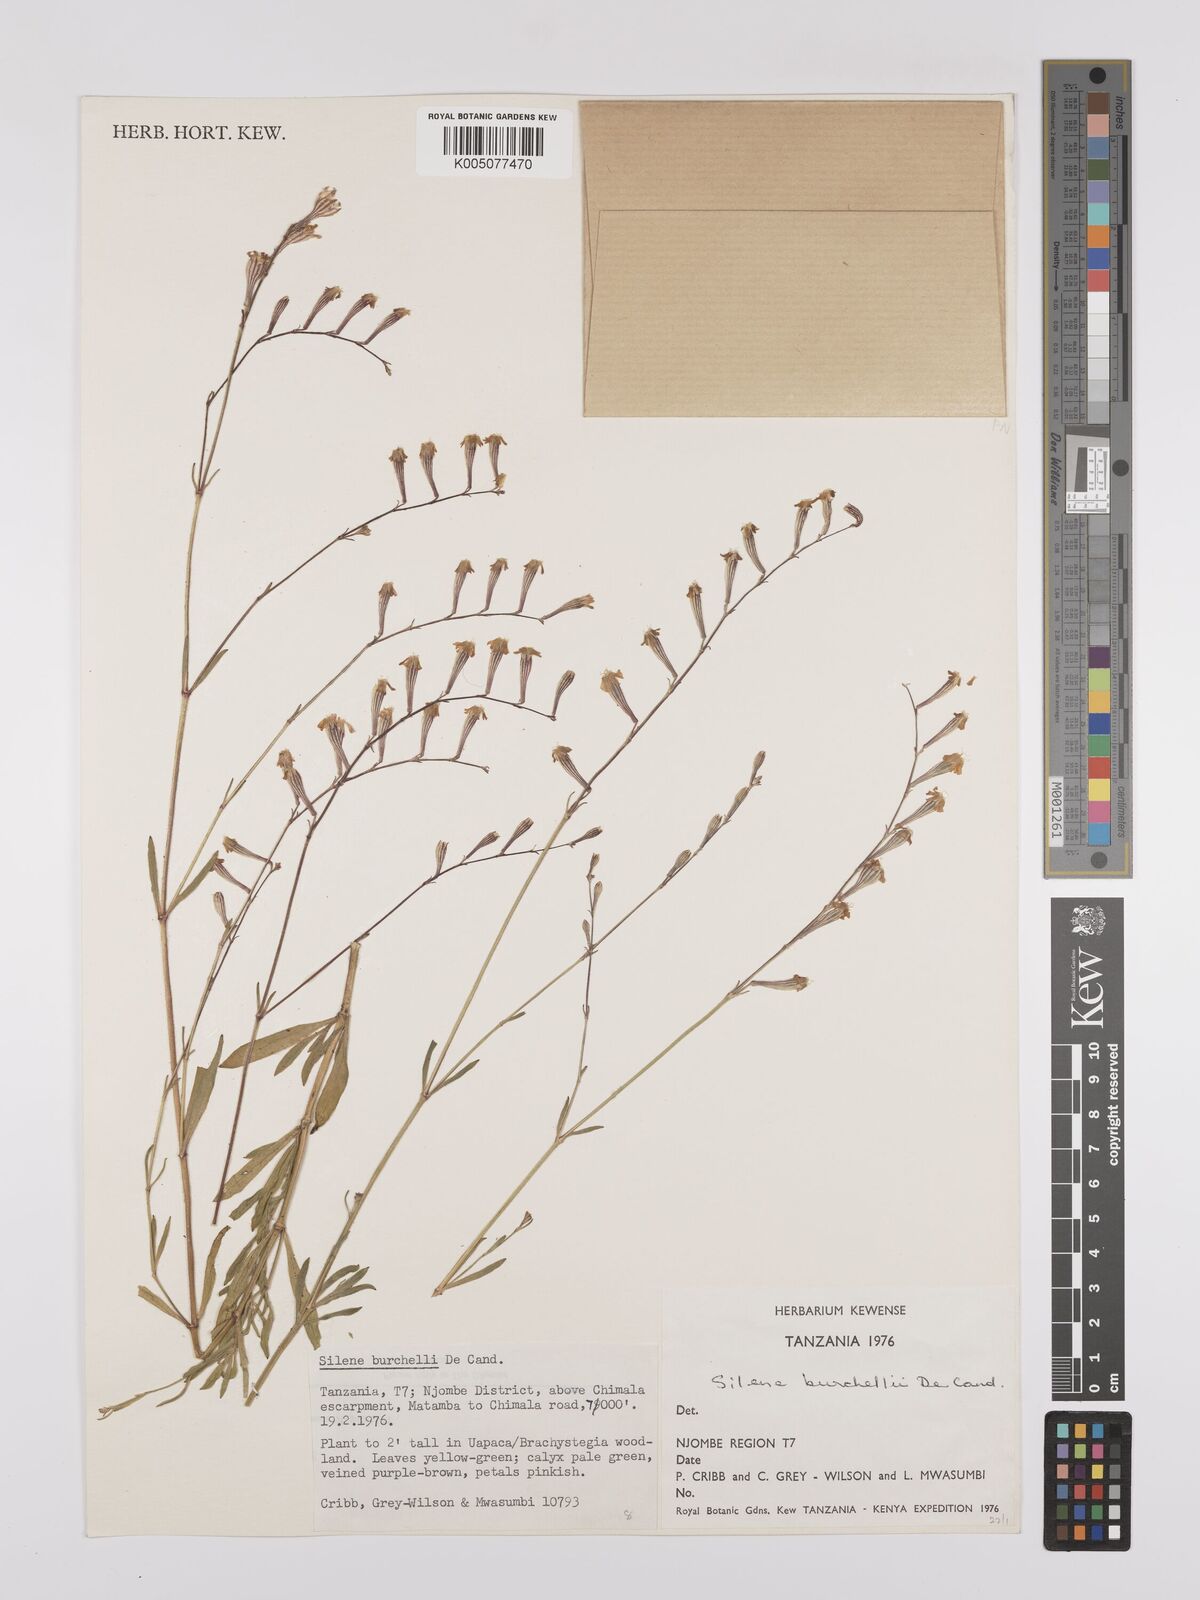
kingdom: Plantae
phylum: Tracheophyta
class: Magnoliopsida
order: Caryophyllales
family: Caryophyllaceae
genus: Silene
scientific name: Silene burchellii
